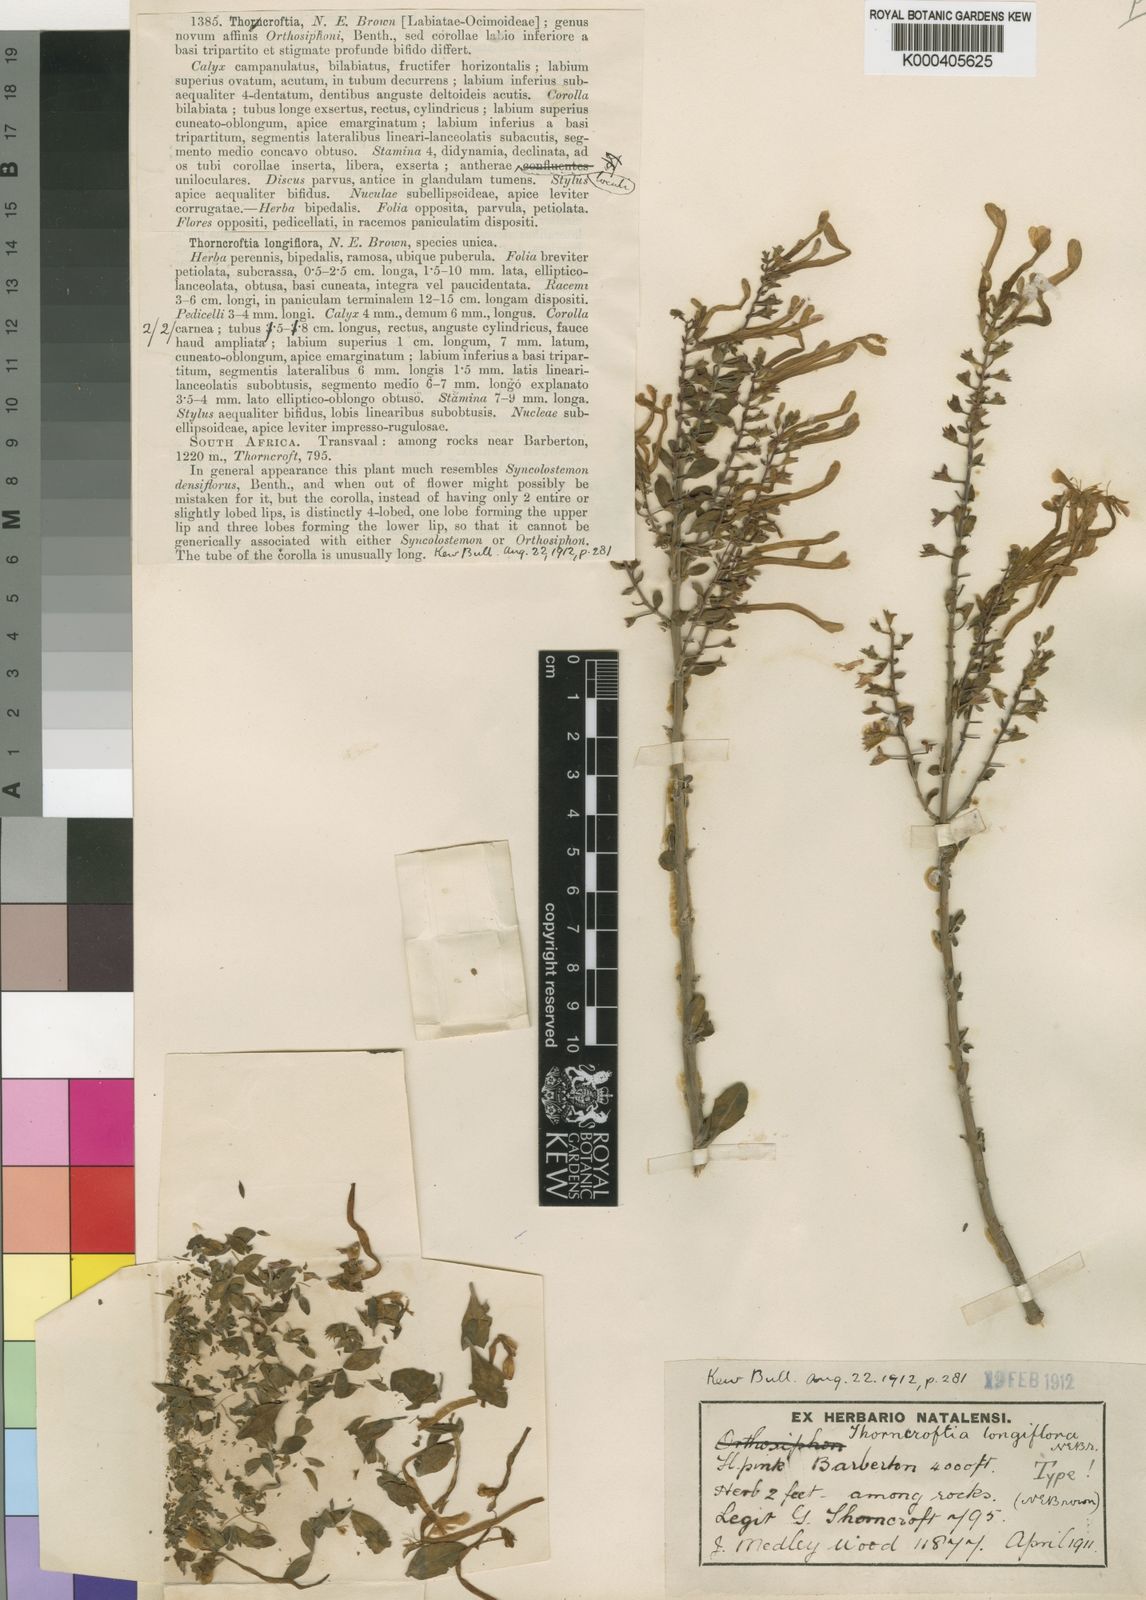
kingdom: Plantae
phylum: Tracheophyta
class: Magnoliopsida
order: Lamiales
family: Lamiaceae
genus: Thorncroftia
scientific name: Thorncroftia longiflora
